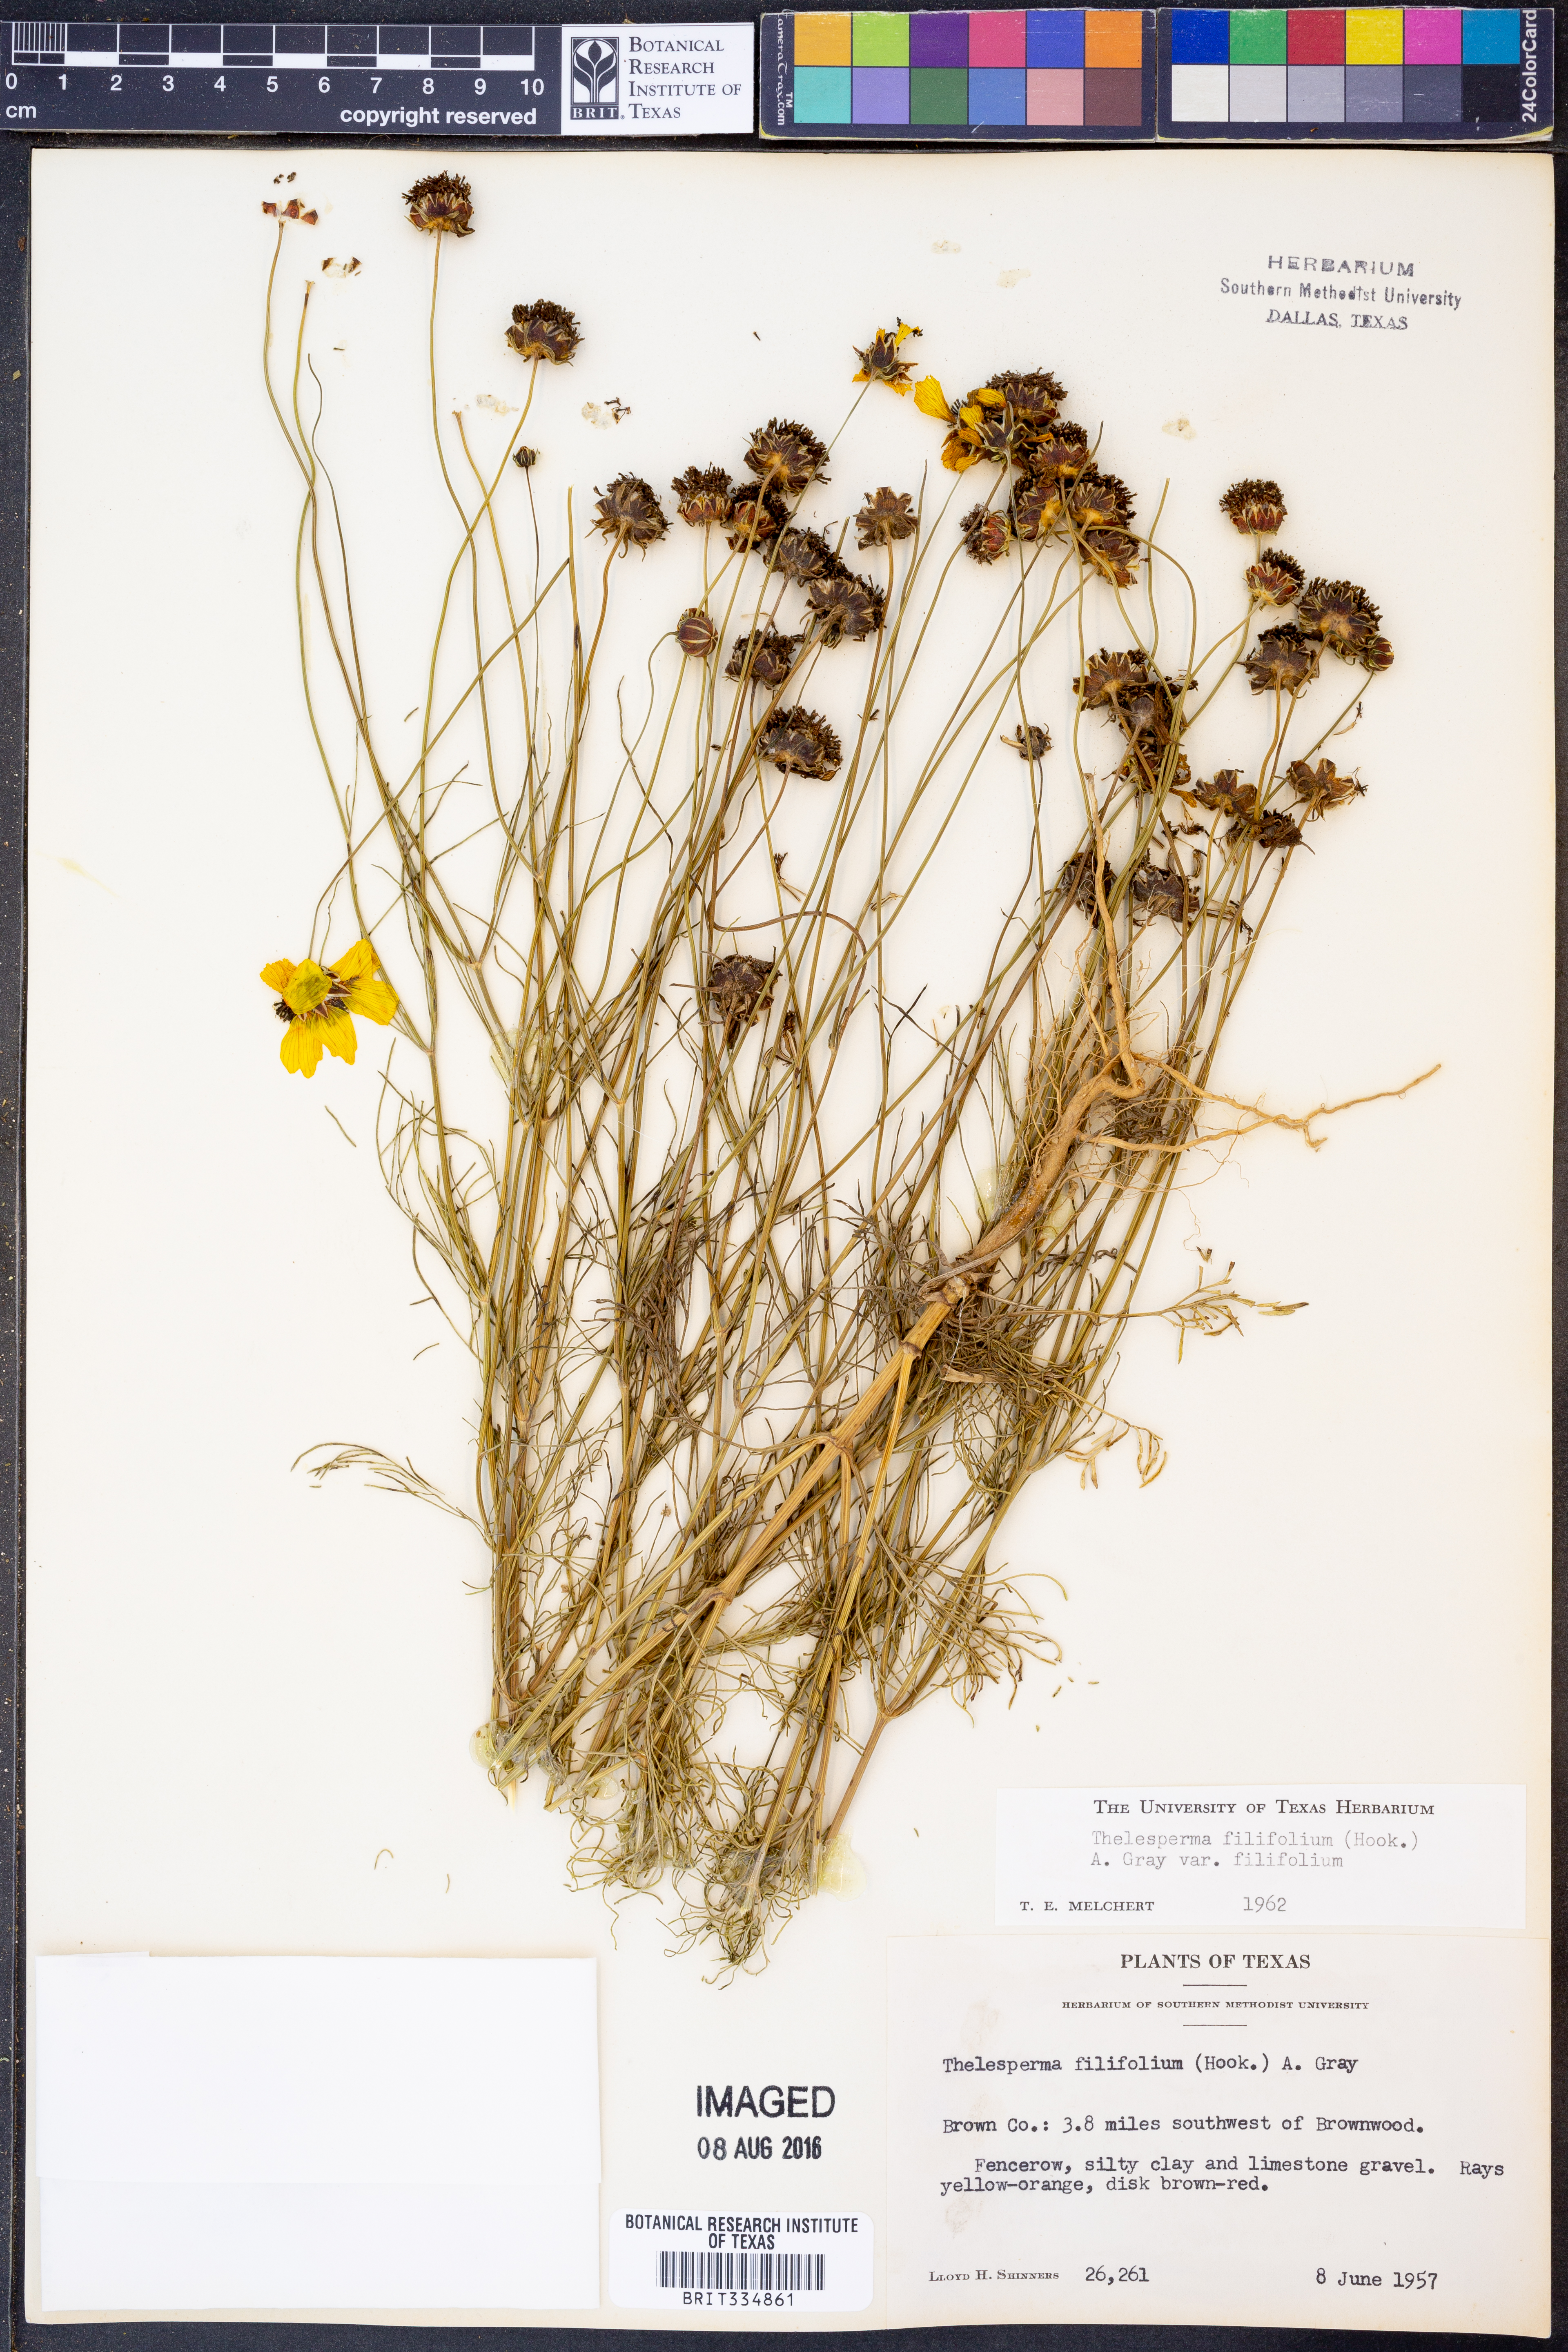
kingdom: Plantae
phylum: Tracheophyta
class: Magnoliopsida
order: Asterales
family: Asteraceae
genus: Thelesperma
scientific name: Thelesperma filifolium
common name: Stiff greenthread
